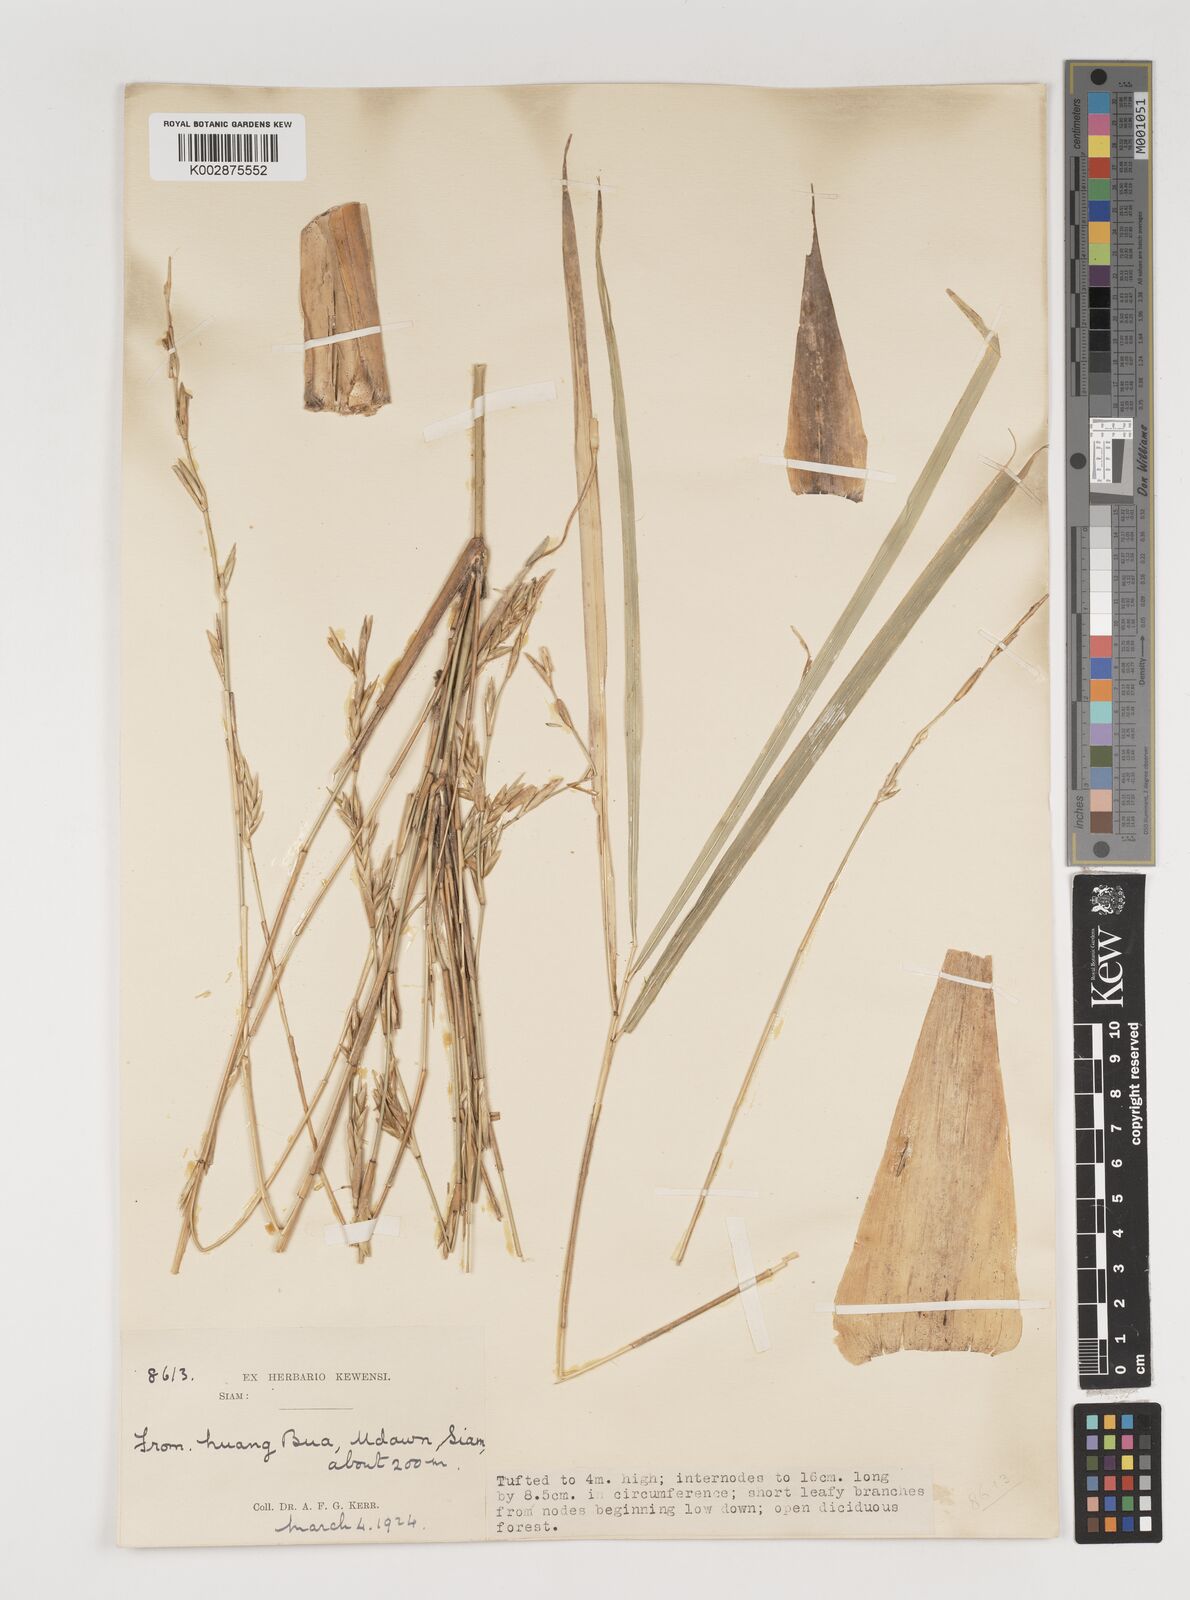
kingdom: Plantae
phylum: Tracheophyta
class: Liliopsida
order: Poales
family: Poaceae
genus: Vietnamosasa
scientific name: Vietnamosasa pusilla
